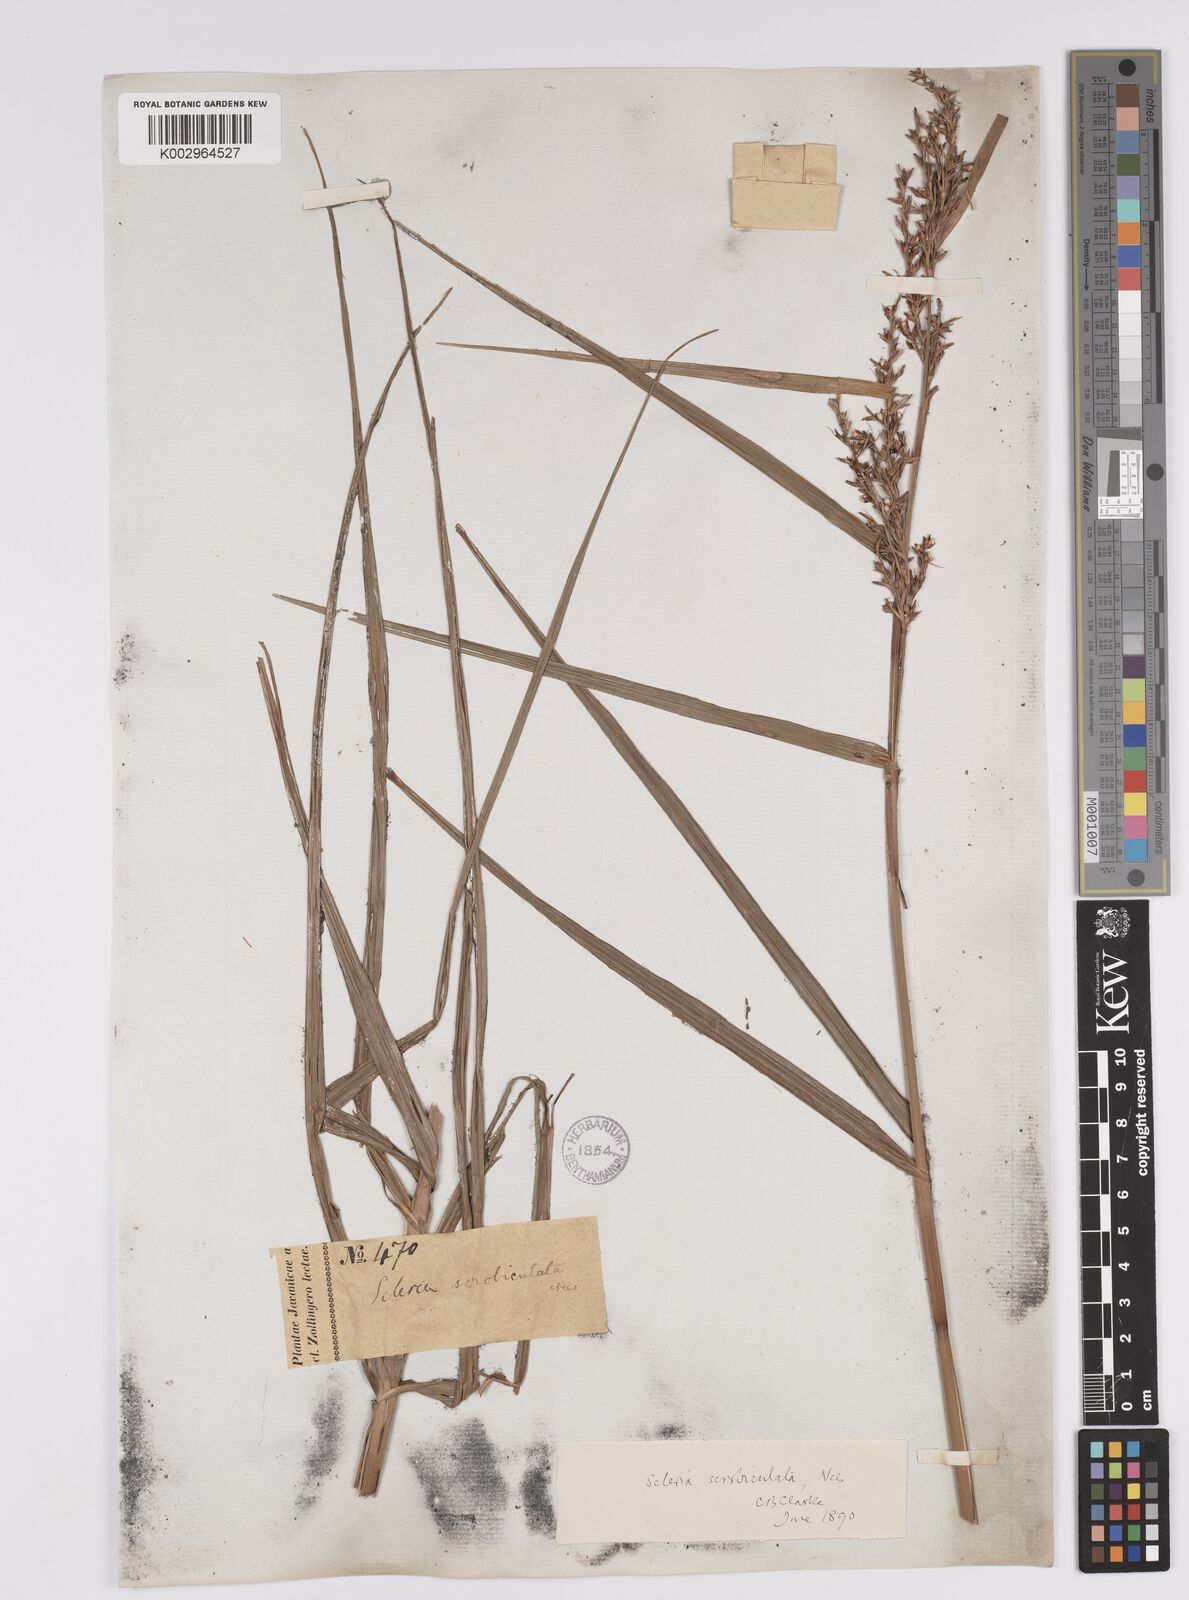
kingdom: Plantae
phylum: Tracheophyta
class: Liliopsida
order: Poales
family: Cyperaceae
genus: Scleria
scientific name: Scleria scrobiculata
